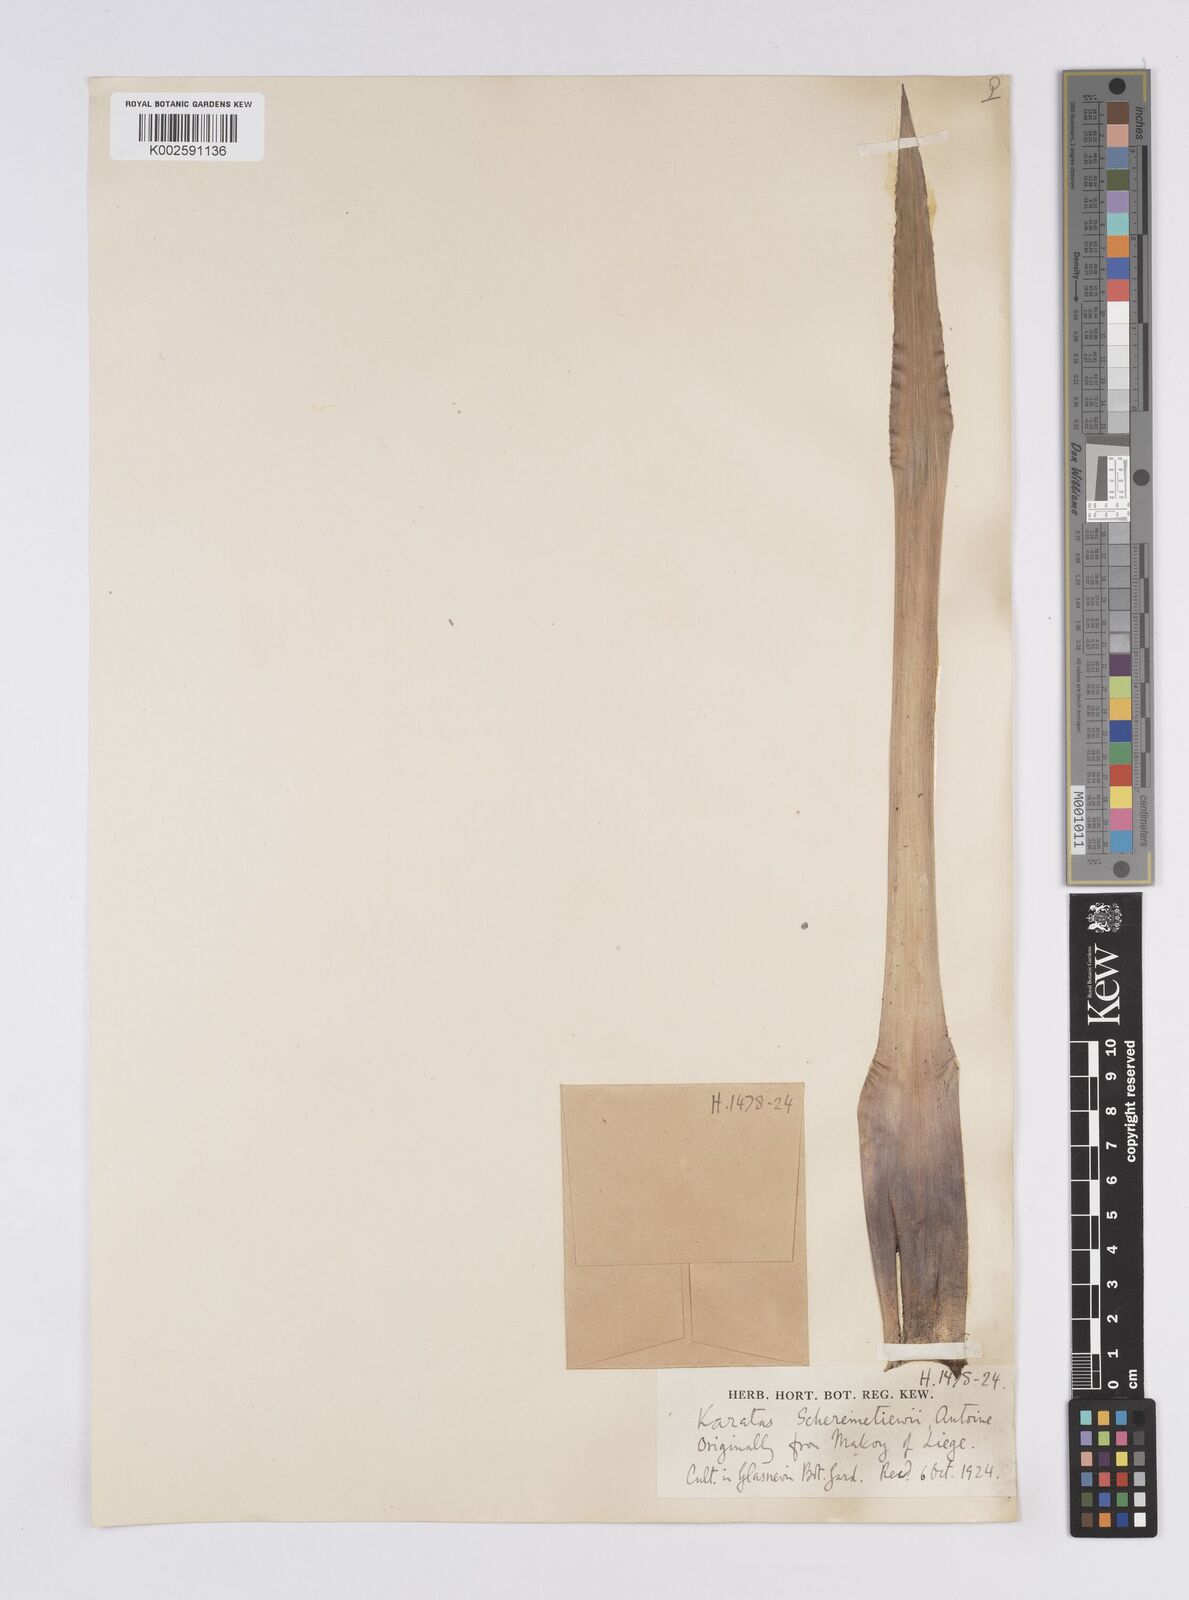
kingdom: Plantae
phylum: Tracheophyta
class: Liliopsida
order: Poales
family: Bromeliaceae
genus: Nidularium
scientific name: Nidularium scheremetiewii
